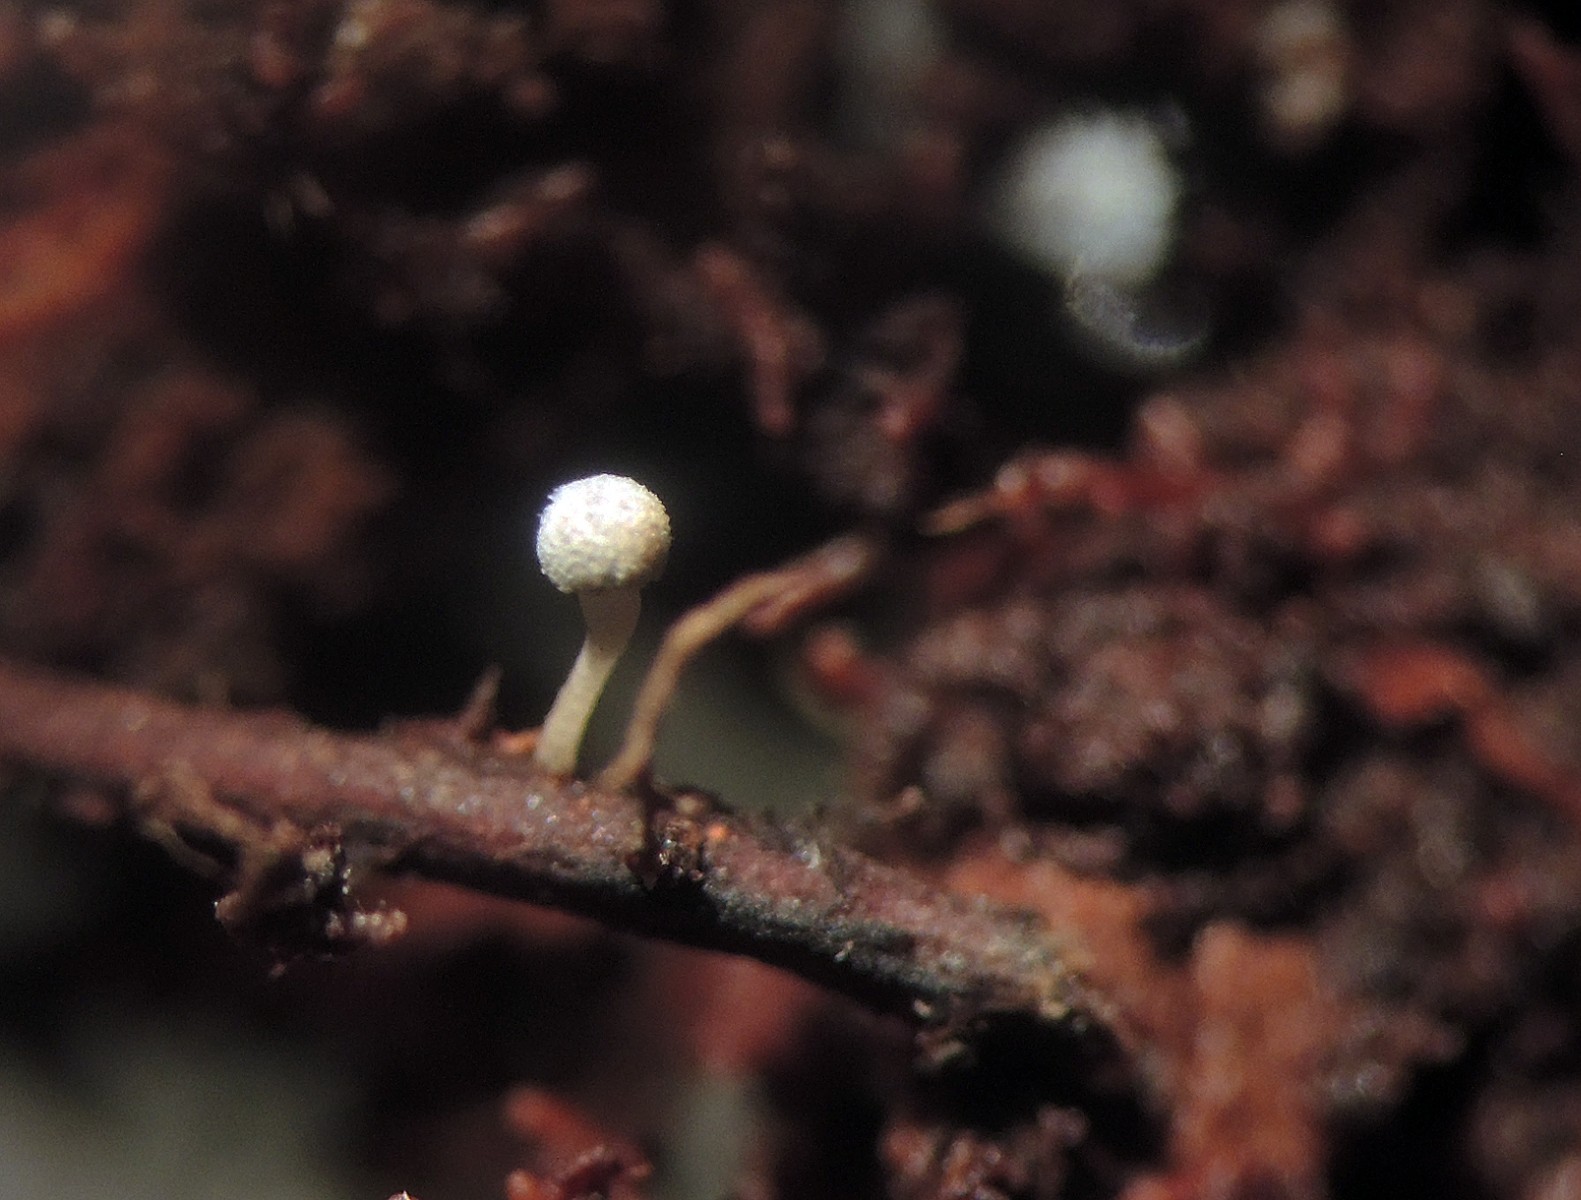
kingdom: Fungi
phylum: Ascomycota
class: Leotiomycetes
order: Helotiales
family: Helotiaceae
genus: Roeslerina
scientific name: Roeslerina
